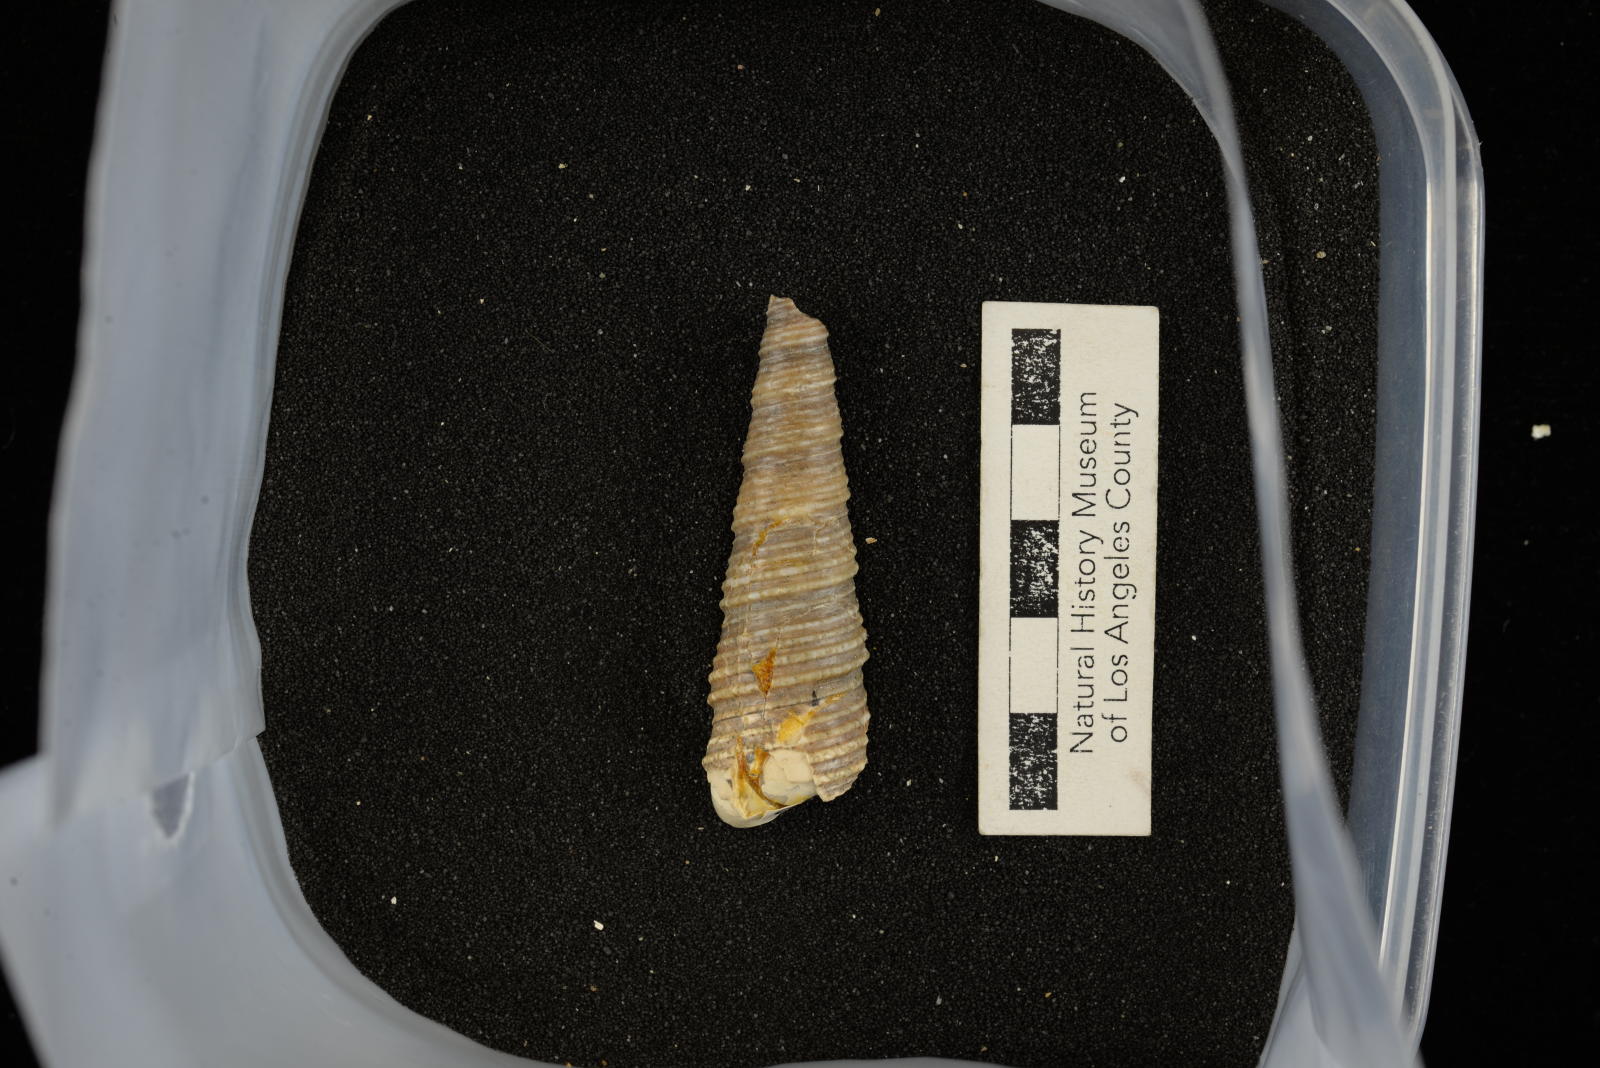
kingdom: Animalia
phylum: Mollusca
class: Gastropoda
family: Turritellidae
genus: Turritella
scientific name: Turritella chicoensis
